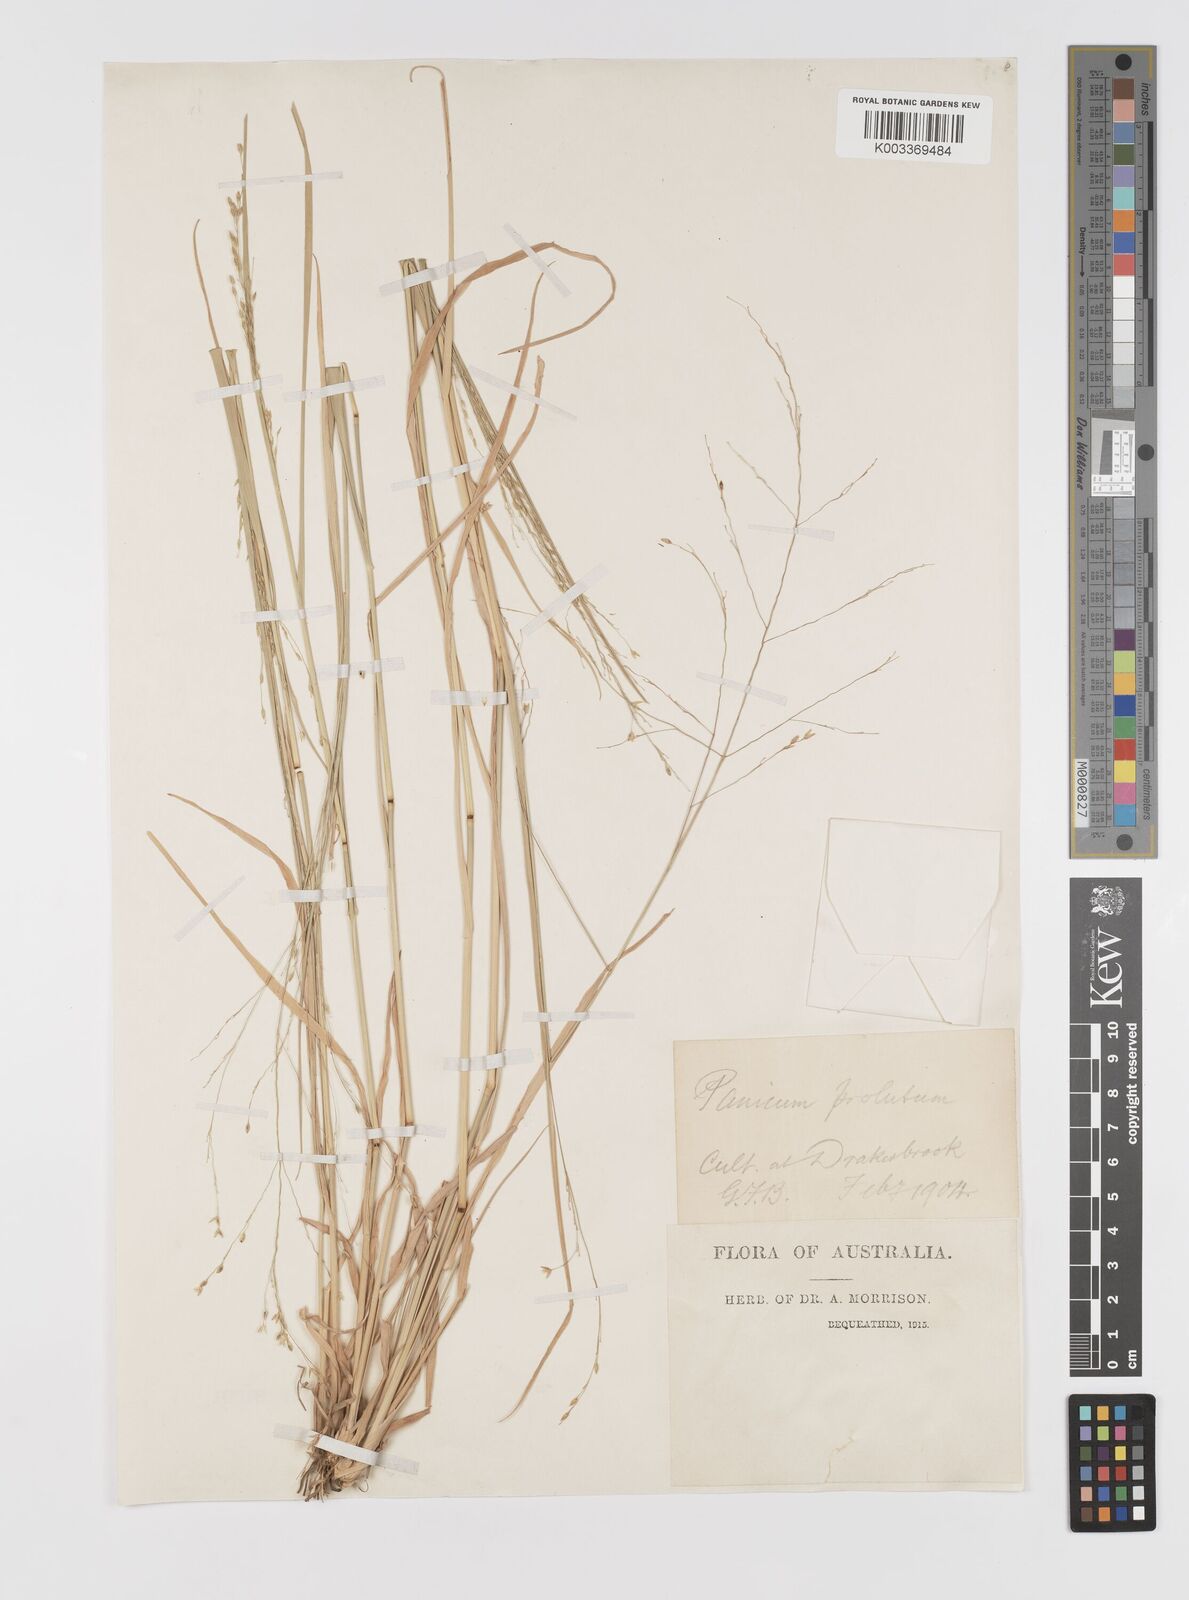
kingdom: Plantae
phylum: Tracheophyta
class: Liliopsida
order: Poales
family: Poaceae
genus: Walwhalleya
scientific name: Walwhalleya proluta
